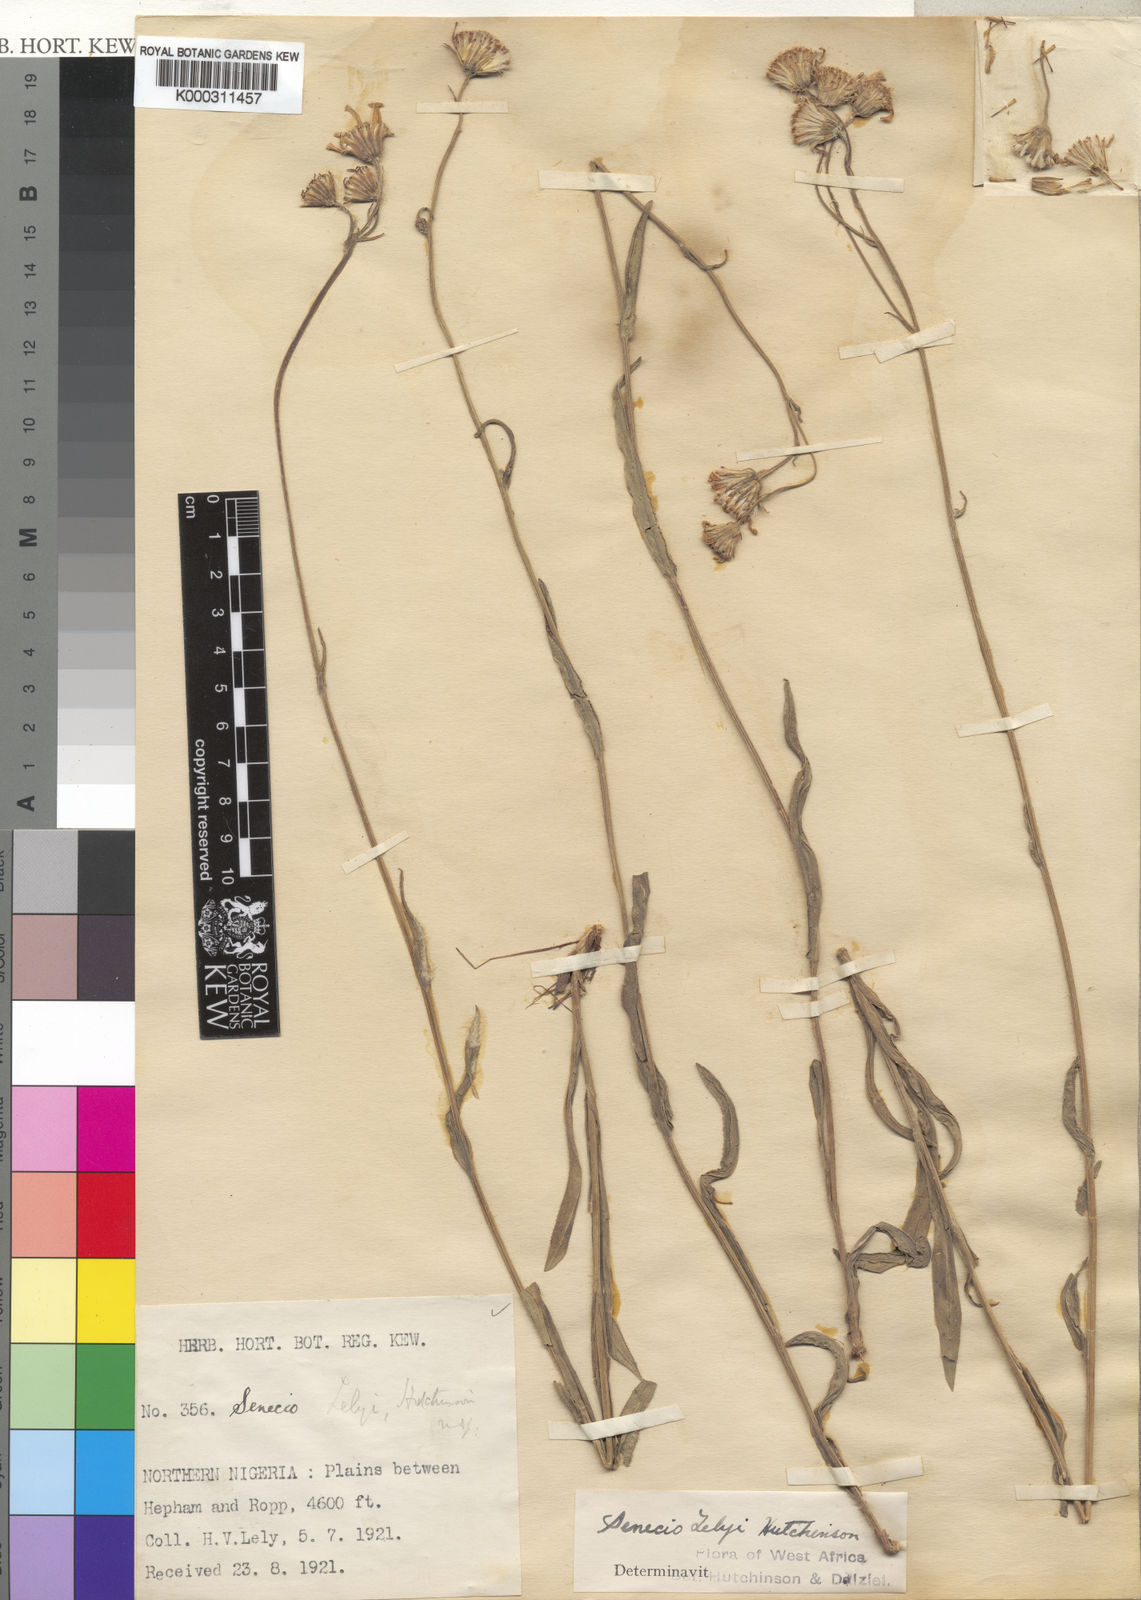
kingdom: Plantae
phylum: Tracheophyta
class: Magnoliopsida
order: Asterales
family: Asteraceae
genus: Senecio
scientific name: Senecio lelyi
